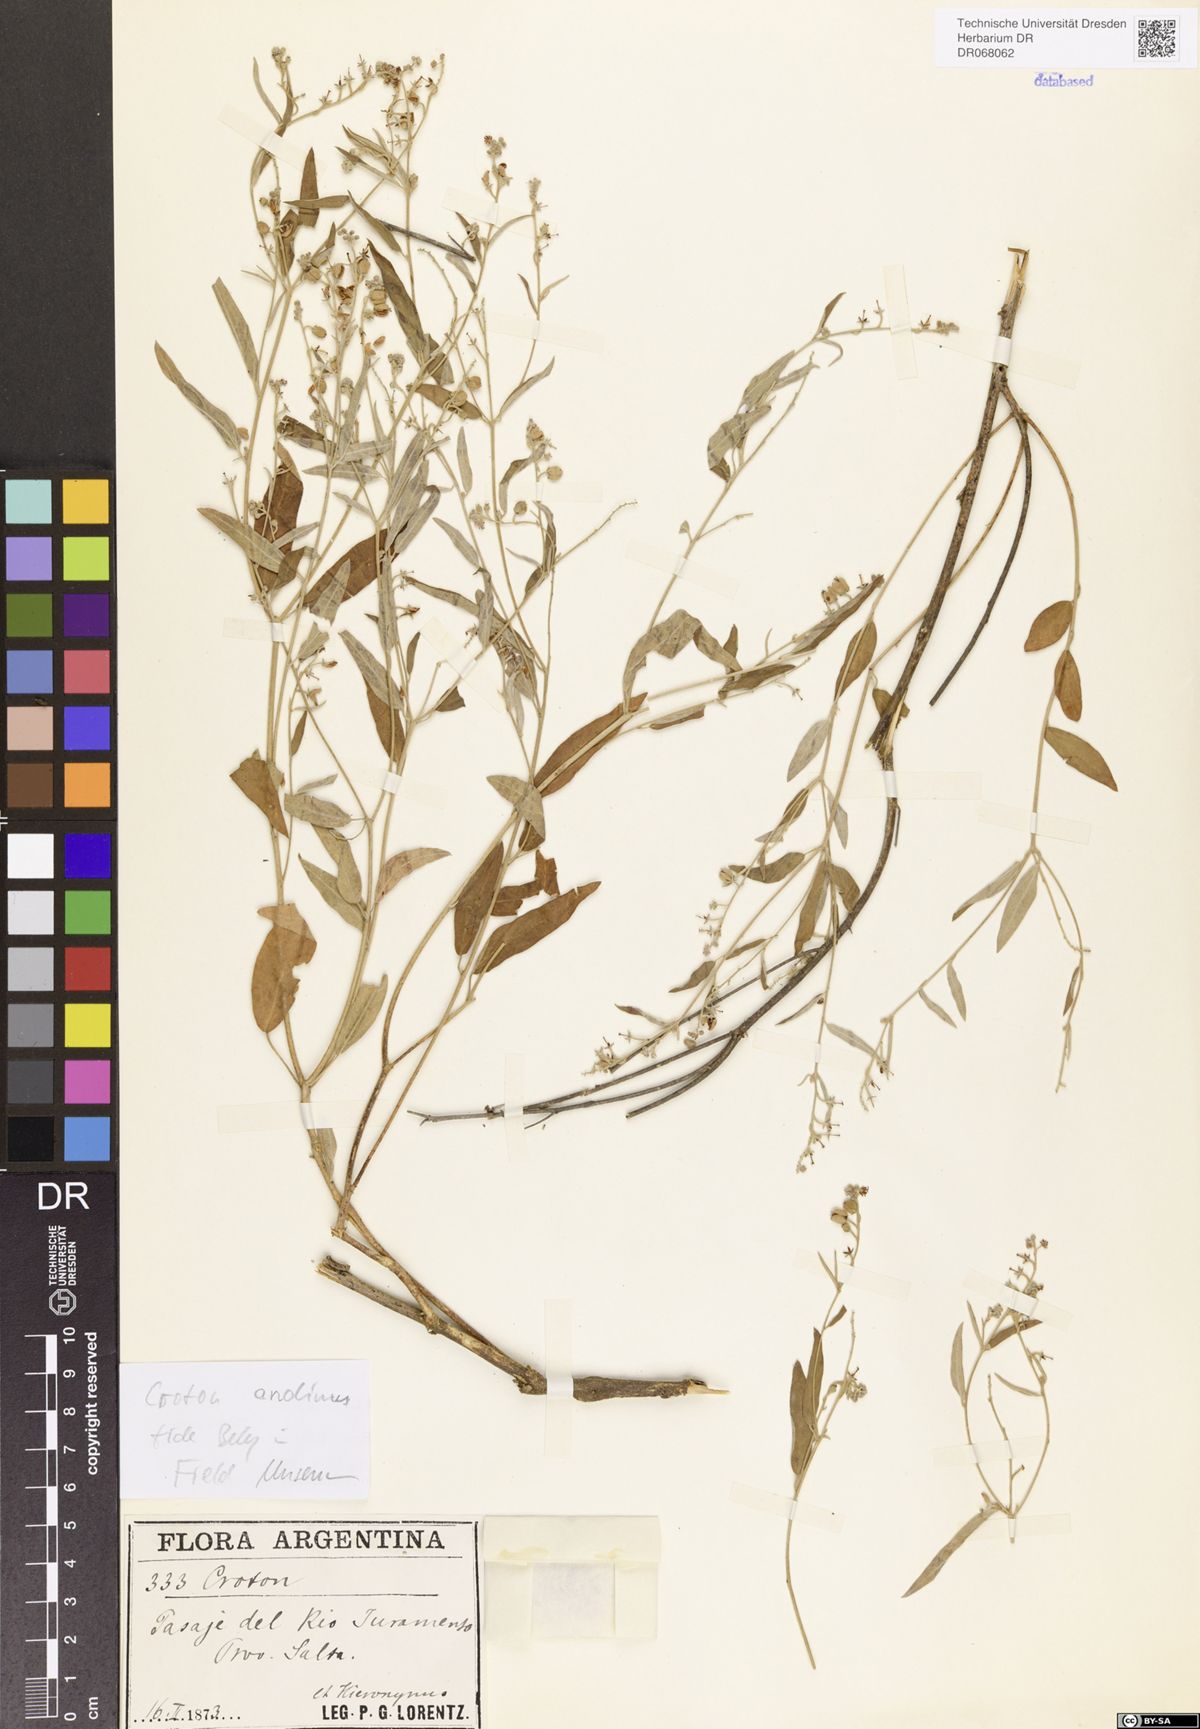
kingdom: Plantae
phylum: Tracheophyta
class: Magnoliopsida
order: Malpighiales
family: Euphorbiaceae
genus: Croton
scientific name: Croton andinus
